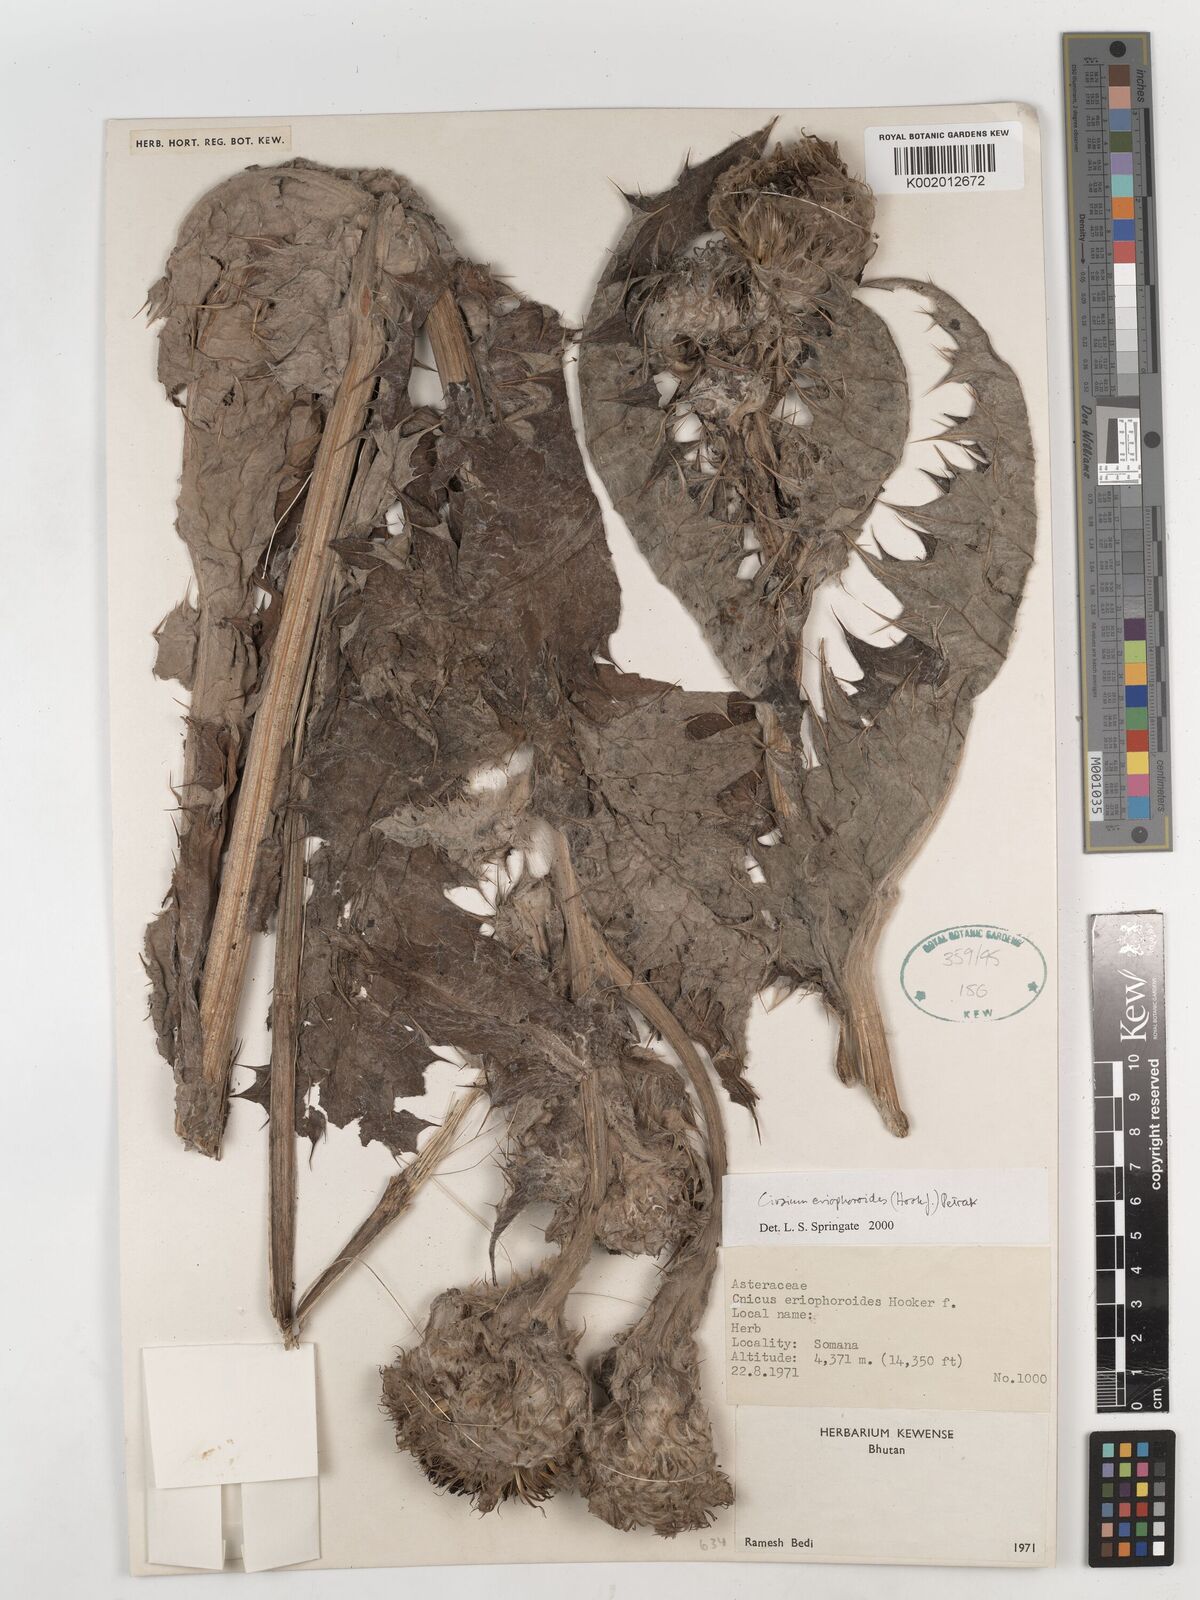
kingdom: Plantae
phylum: Tracheophyta
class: Magnoliopsida
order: Asterales
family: Asteraceae
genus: Cirsium
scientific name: Cirsium eriophoroides
